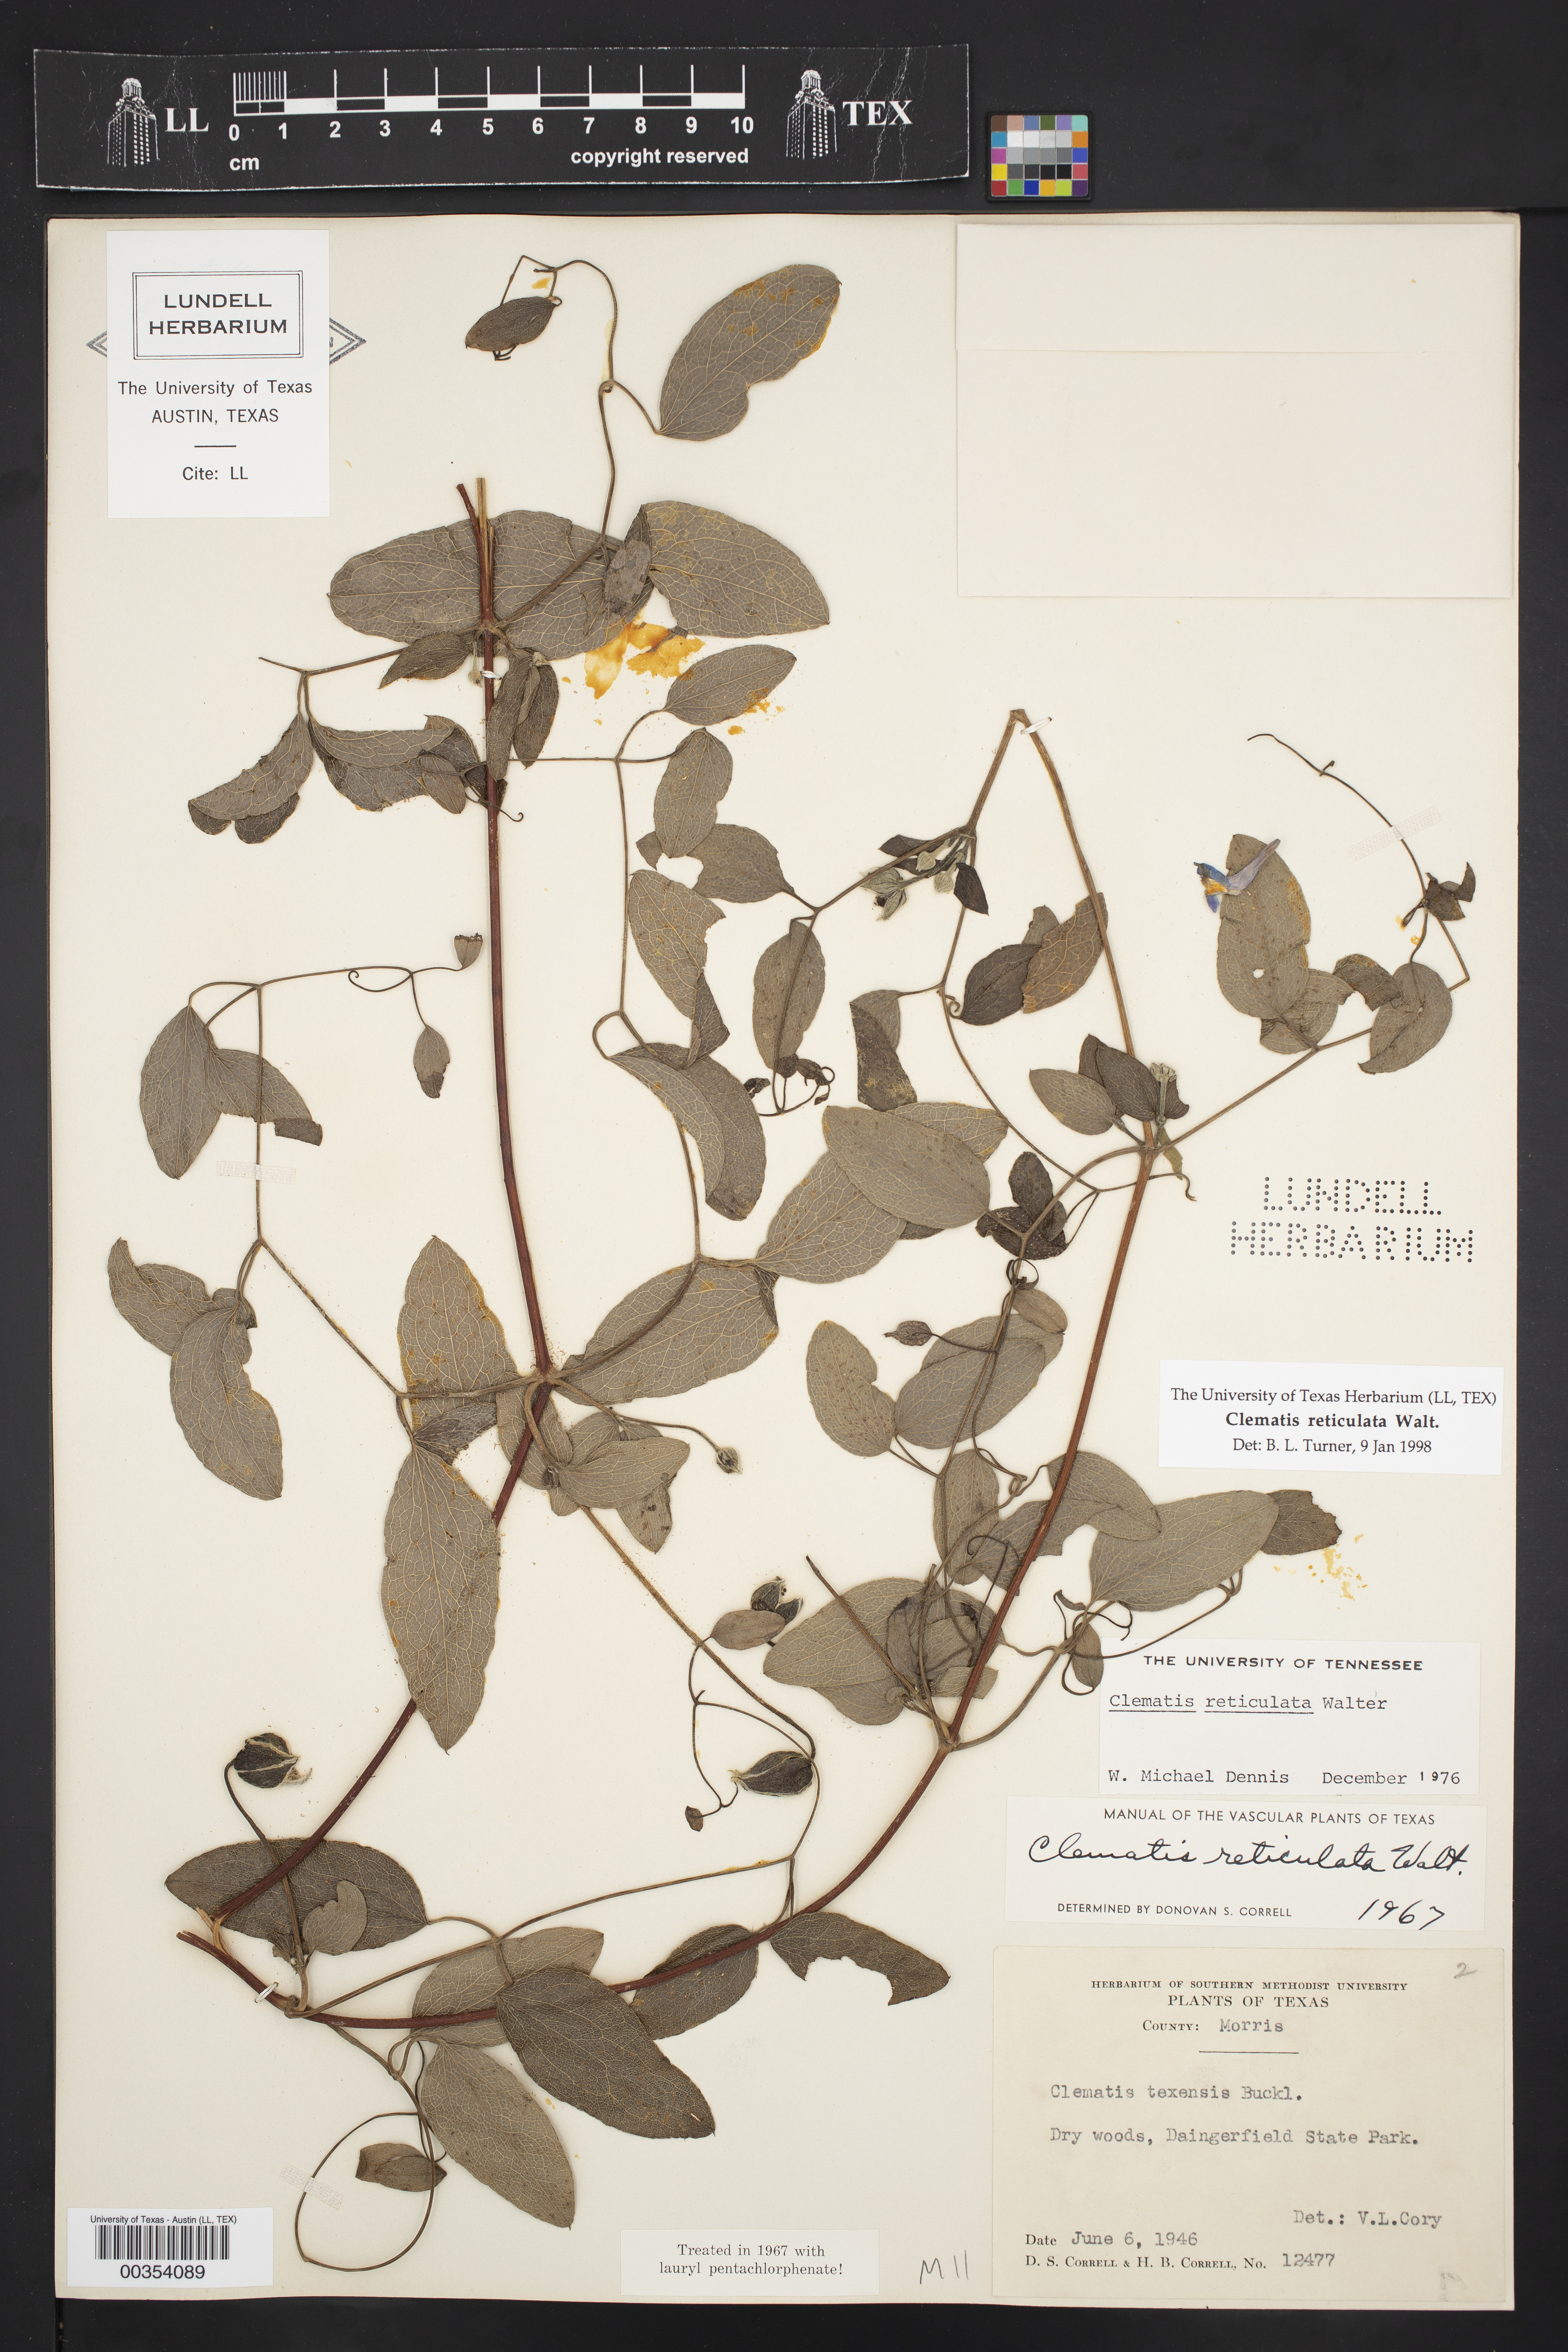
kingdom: Plantae
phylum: Tracheophyta
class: Magnoliopsida
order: Ranunculales
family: Ranunculaceae
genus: Clematis
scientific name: Clematis reticulata
